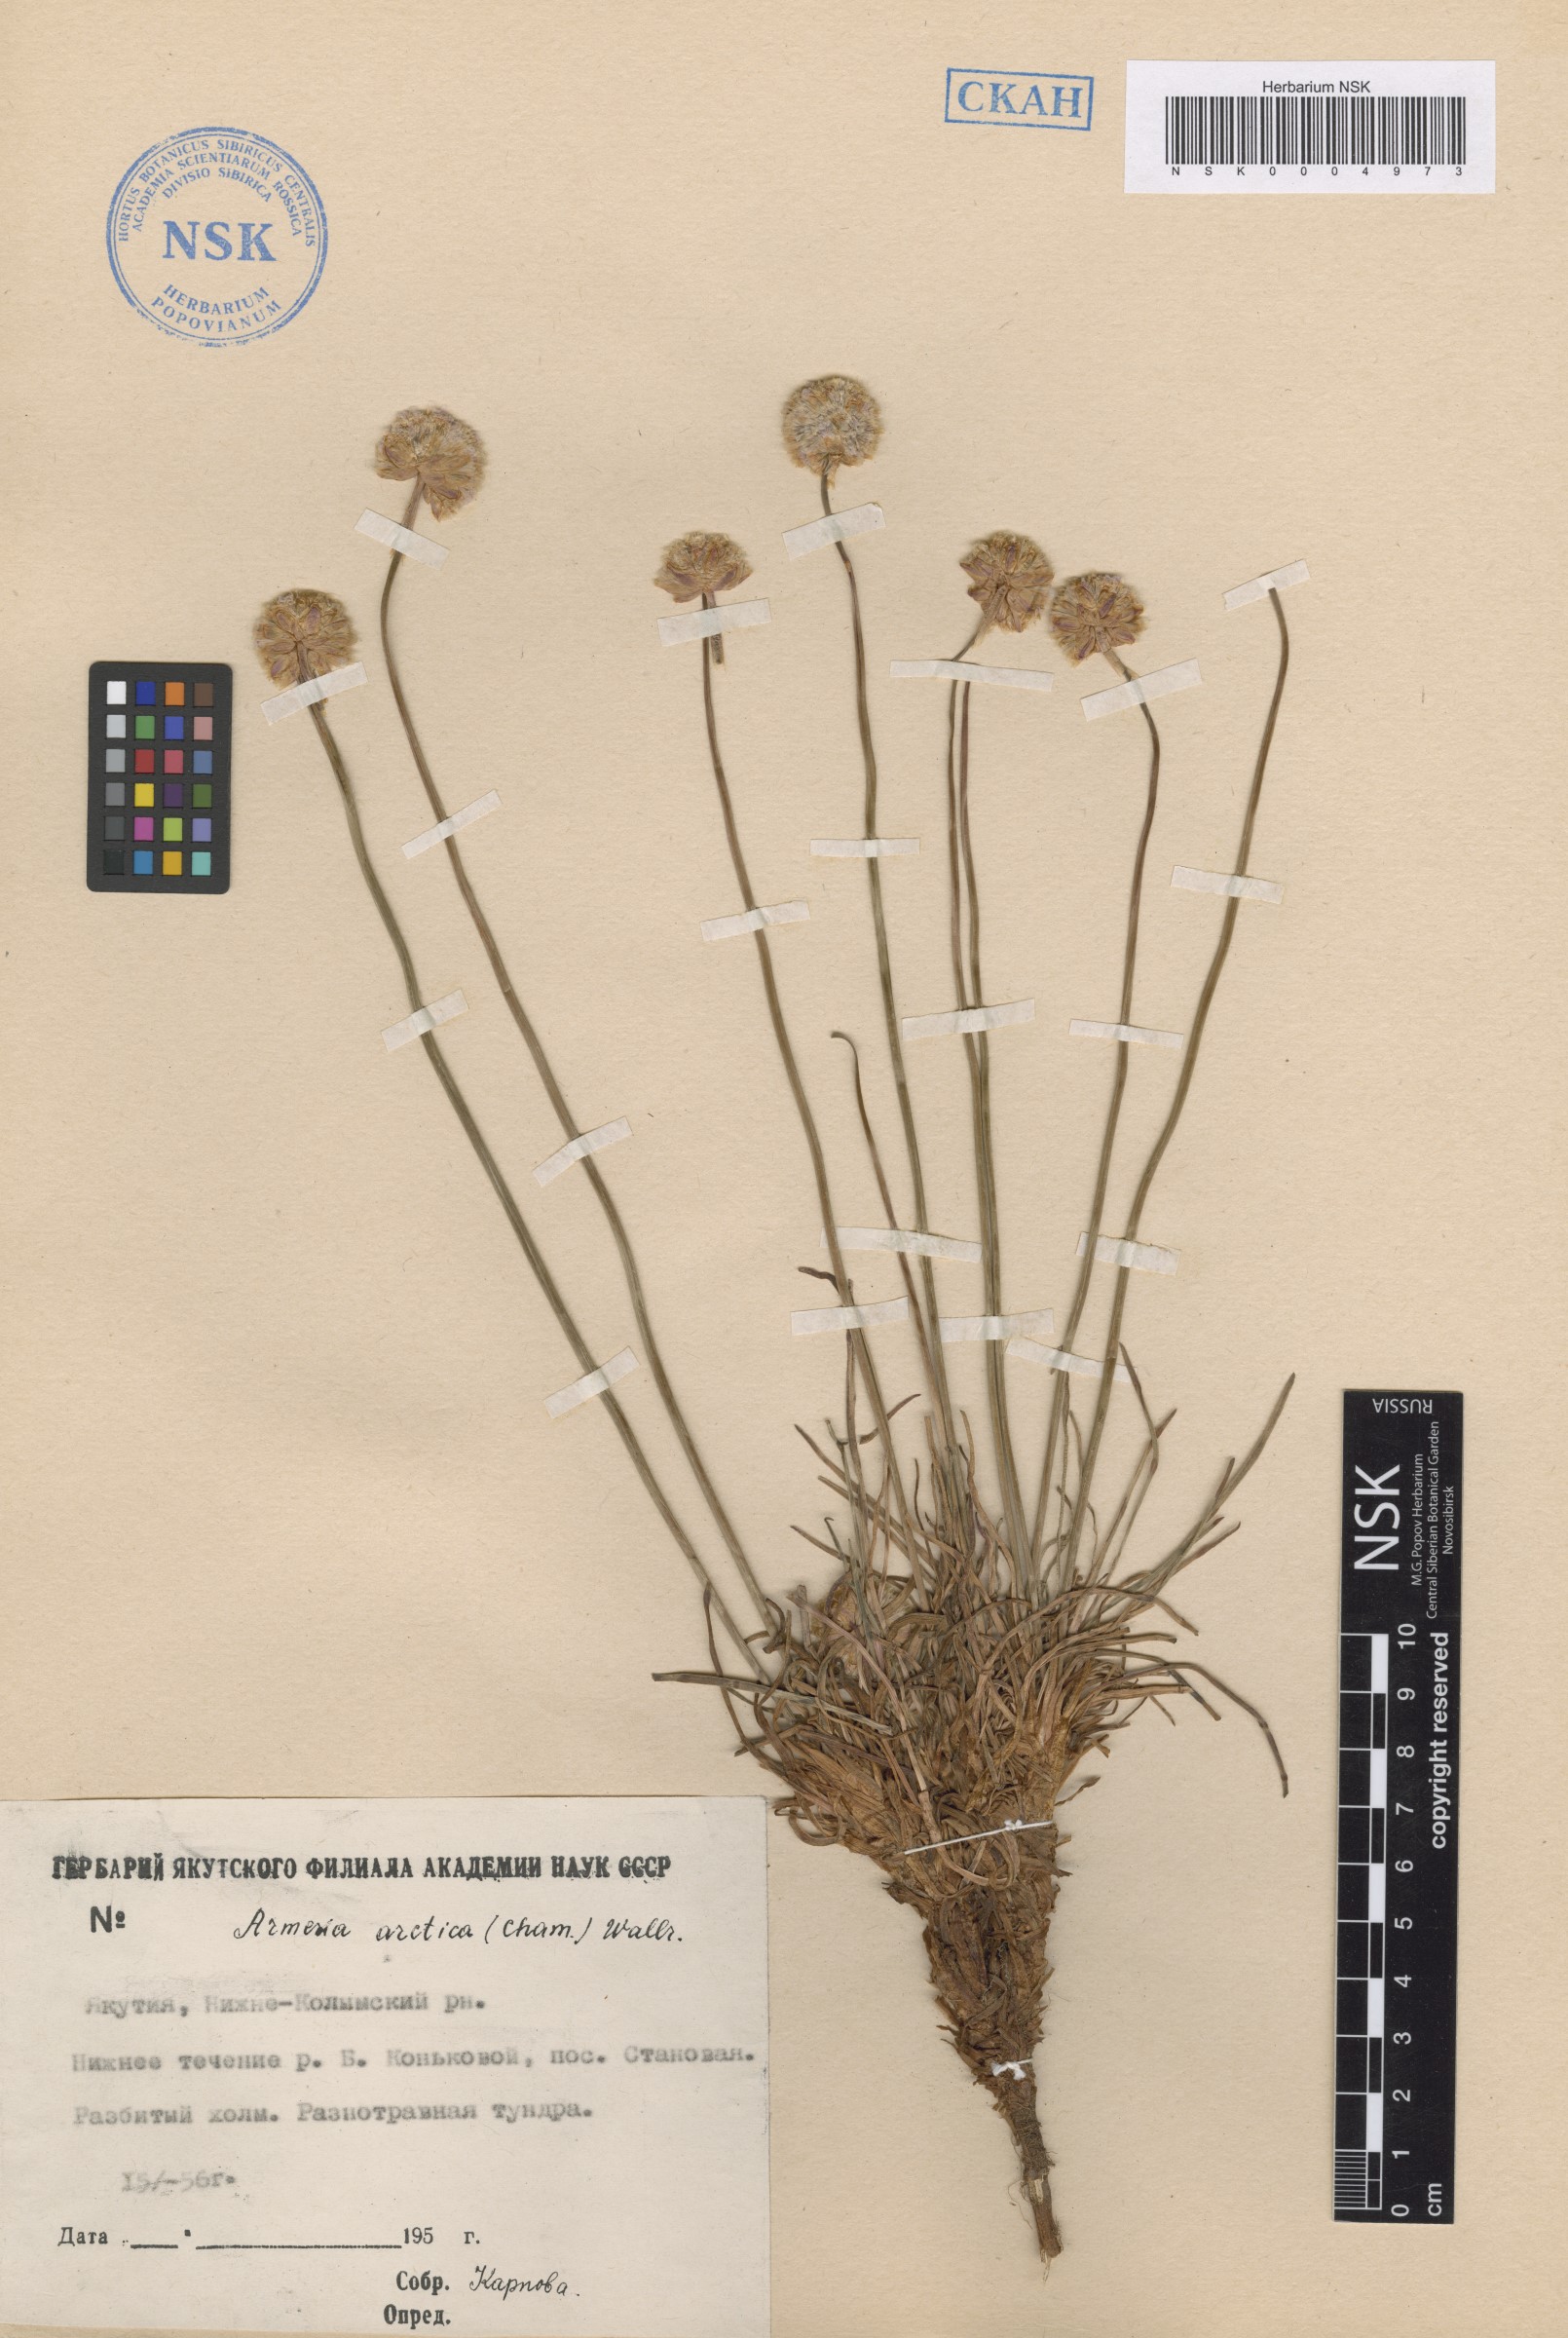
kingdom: Plantae
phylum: Tracheophyta
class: Magnoliopsida
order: Caryophyllales
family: Plumbaginaceae
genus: Armeria
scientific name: Armeria maritima
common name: Thrift
